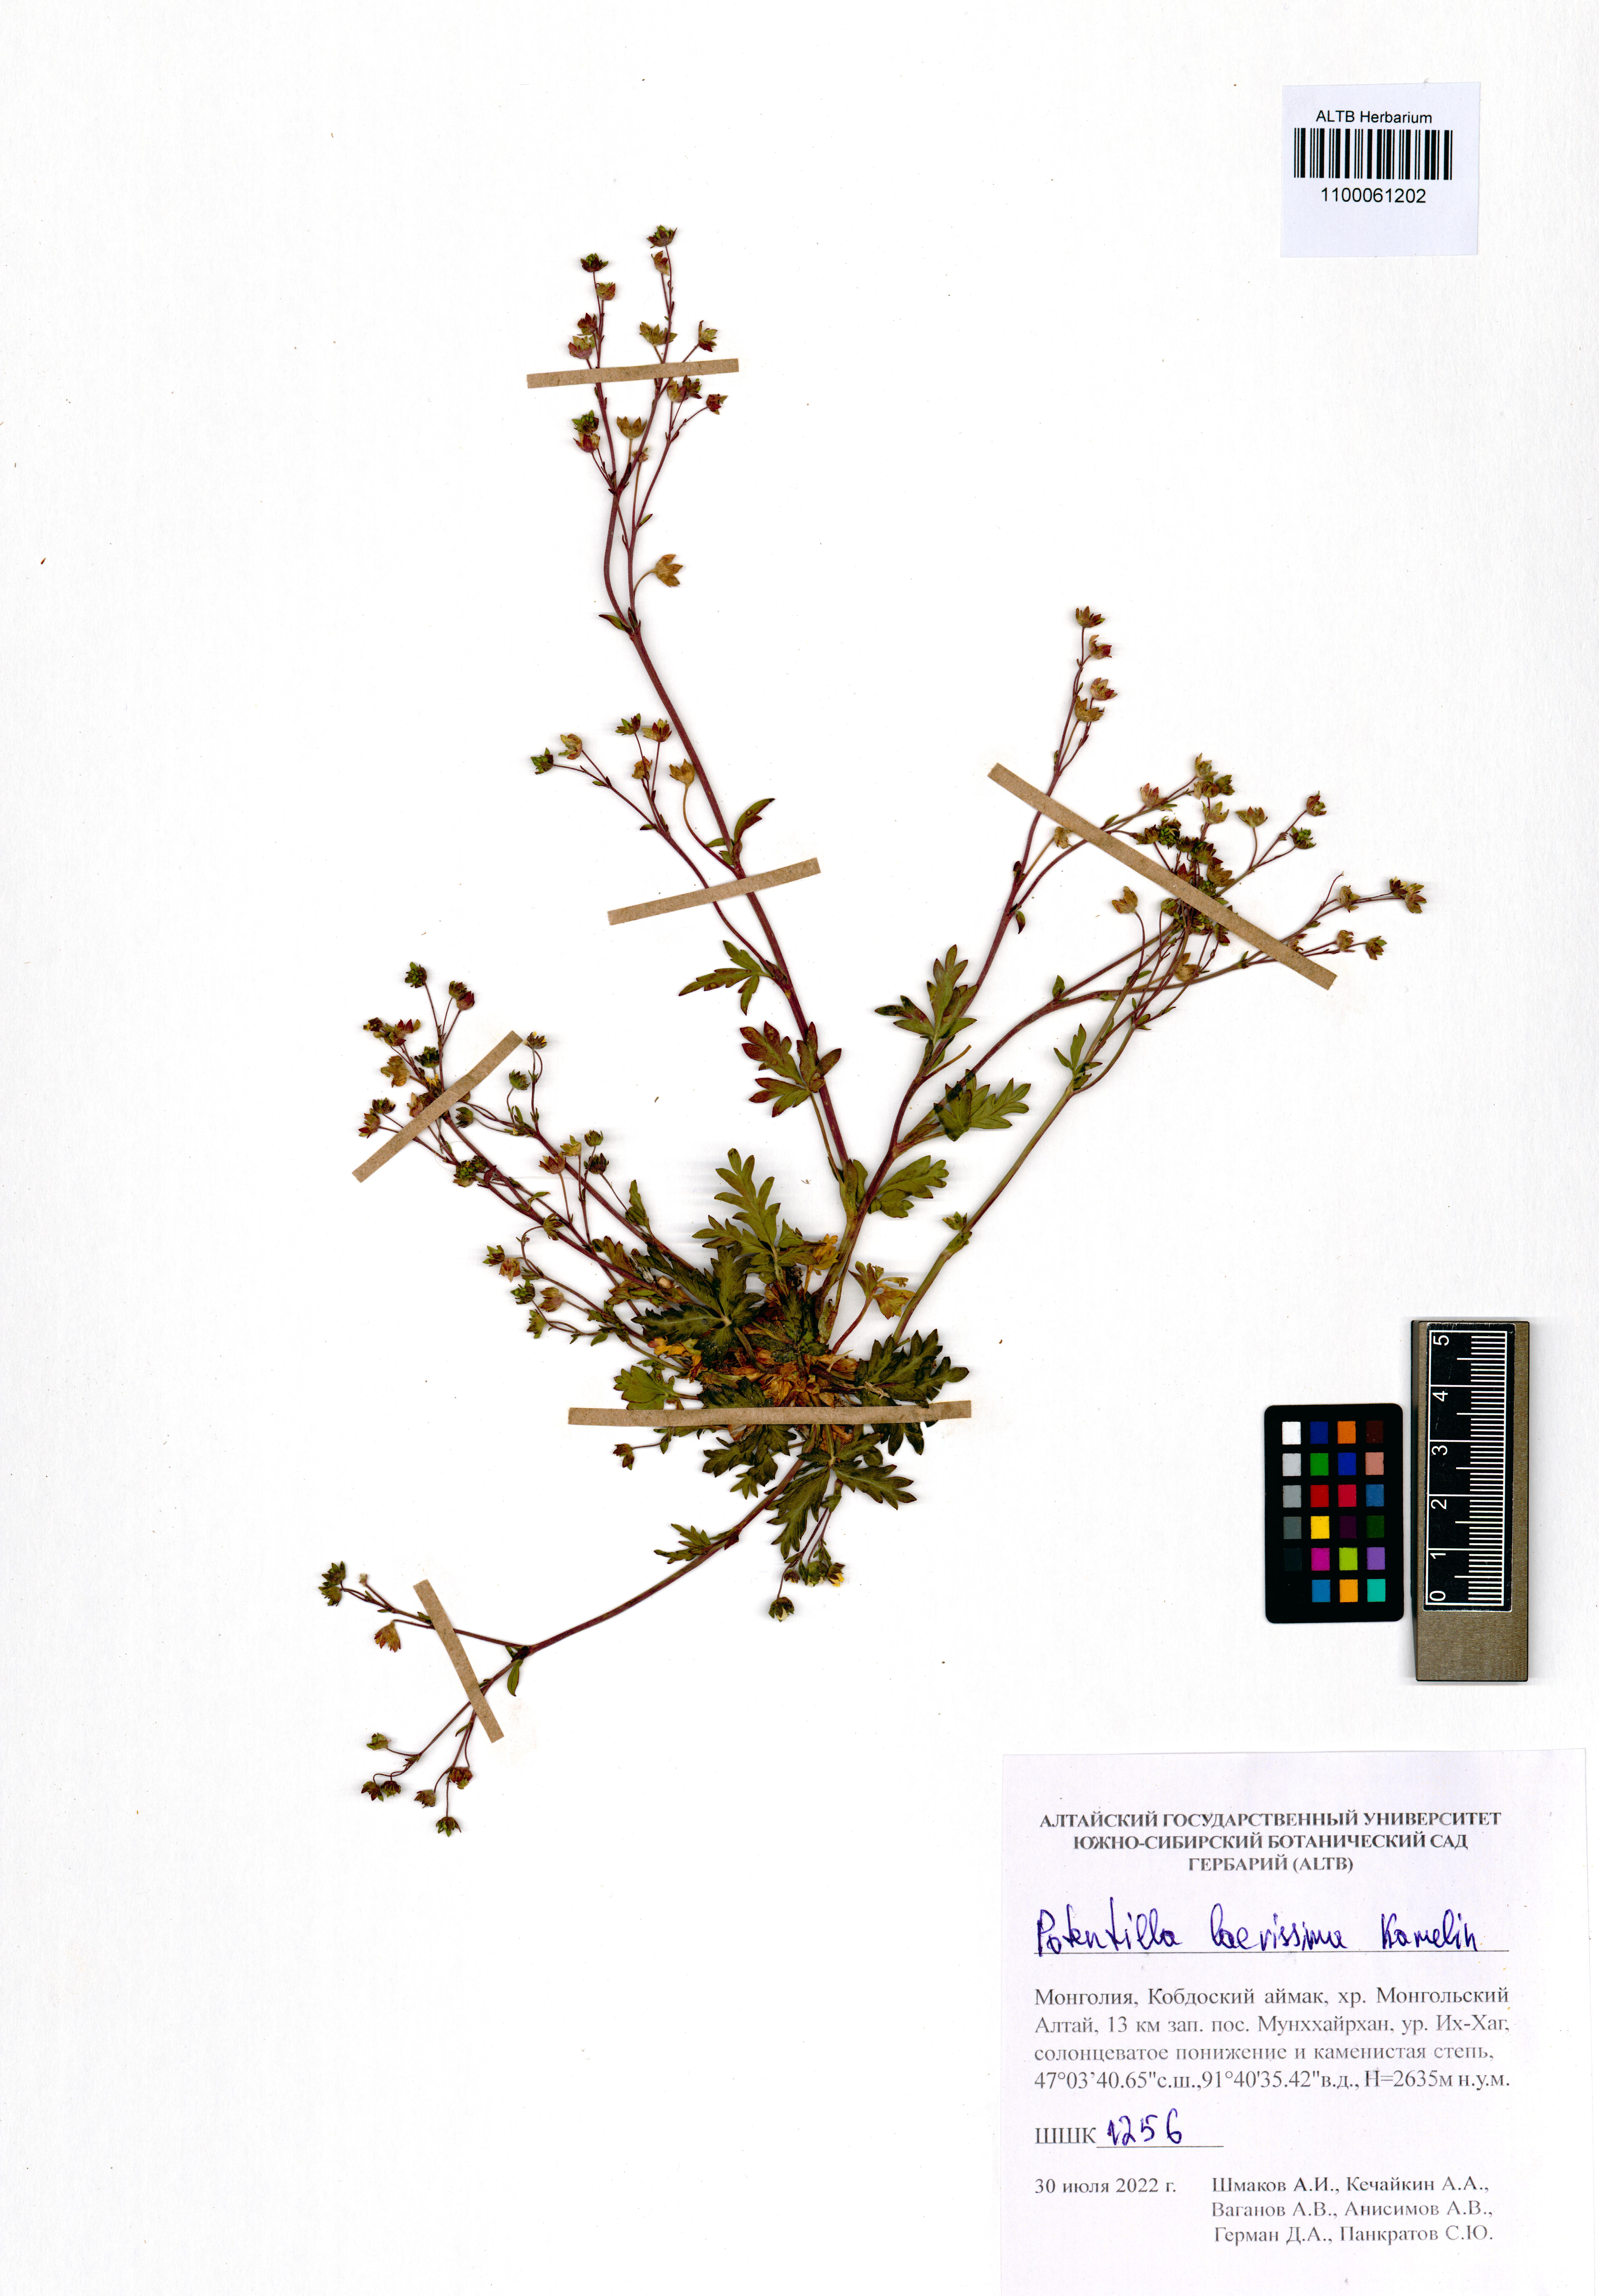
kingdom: Plantae
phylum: Tracheophyta
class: Magnoliopsida
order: Rosales
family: Rosaceae
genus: Potentilla
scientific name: Potentilla laevissima
